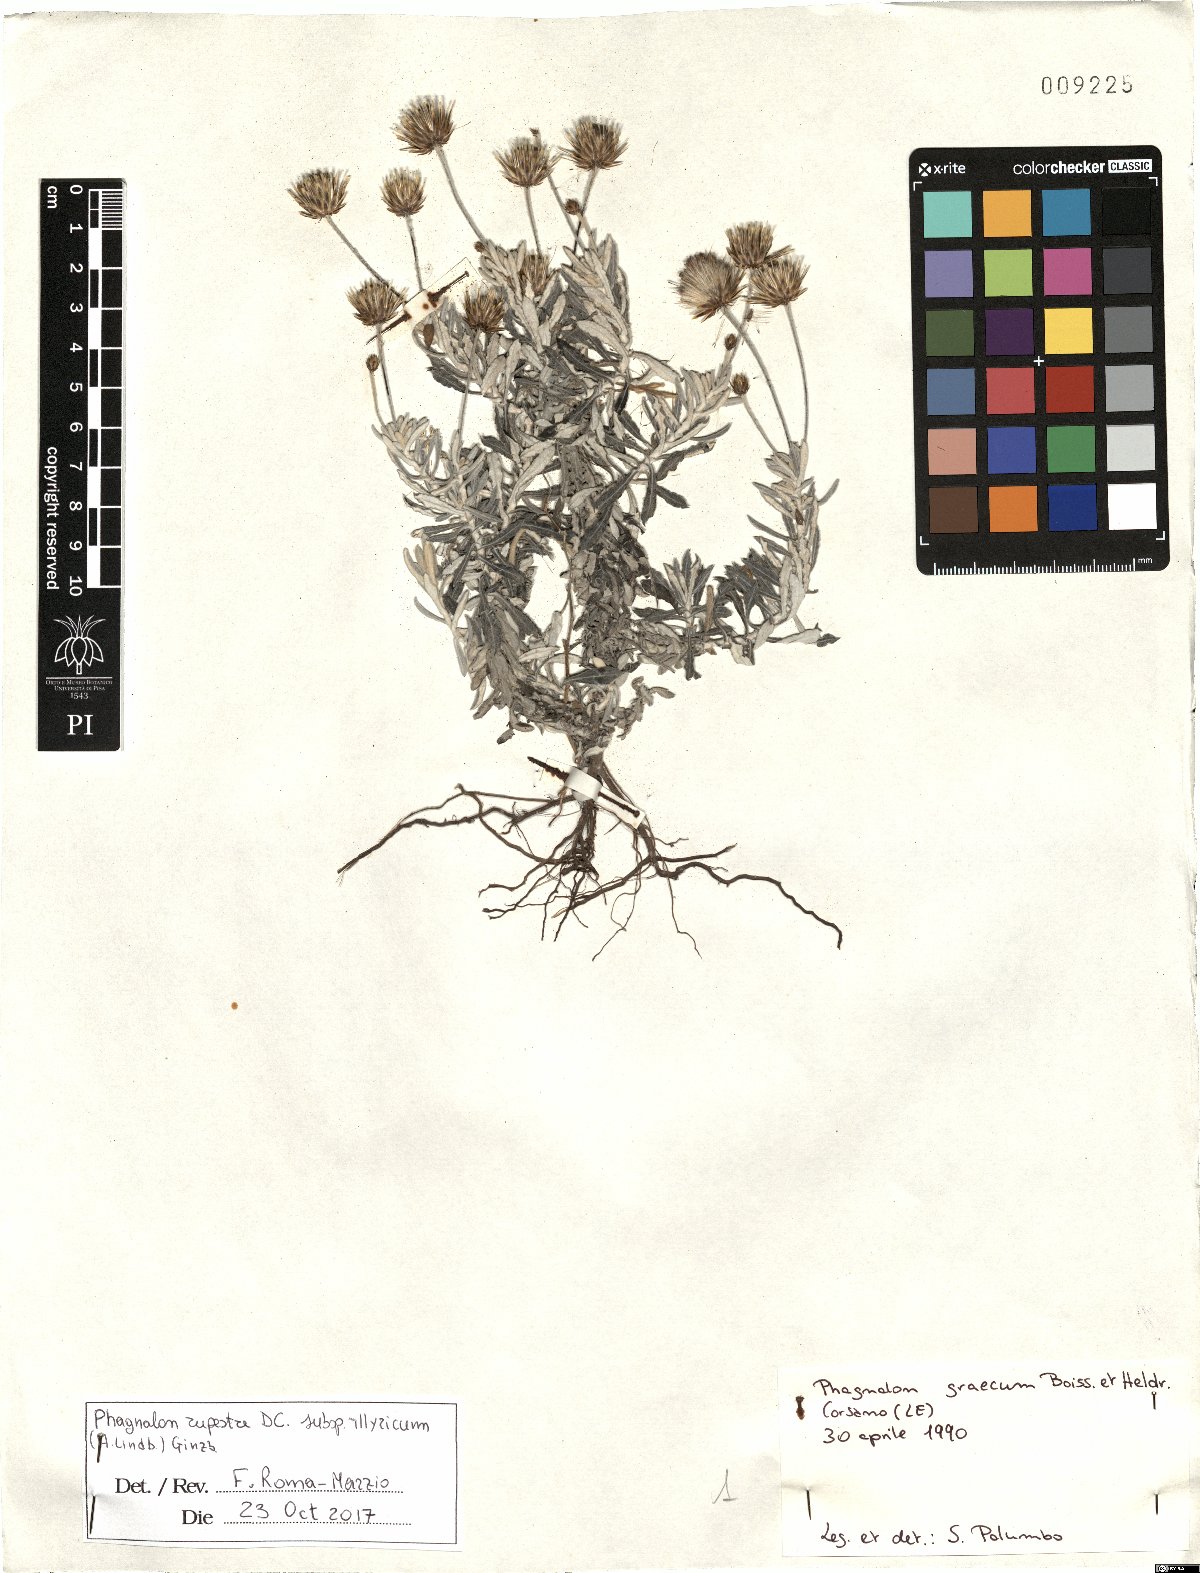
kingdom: Plantae
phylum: Tracheophyta
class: Magnoliopsida
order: Asterales
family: Asteraceae
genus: Phagnalon
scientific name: Phagnalon rupestre
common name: Rock phagnalon
